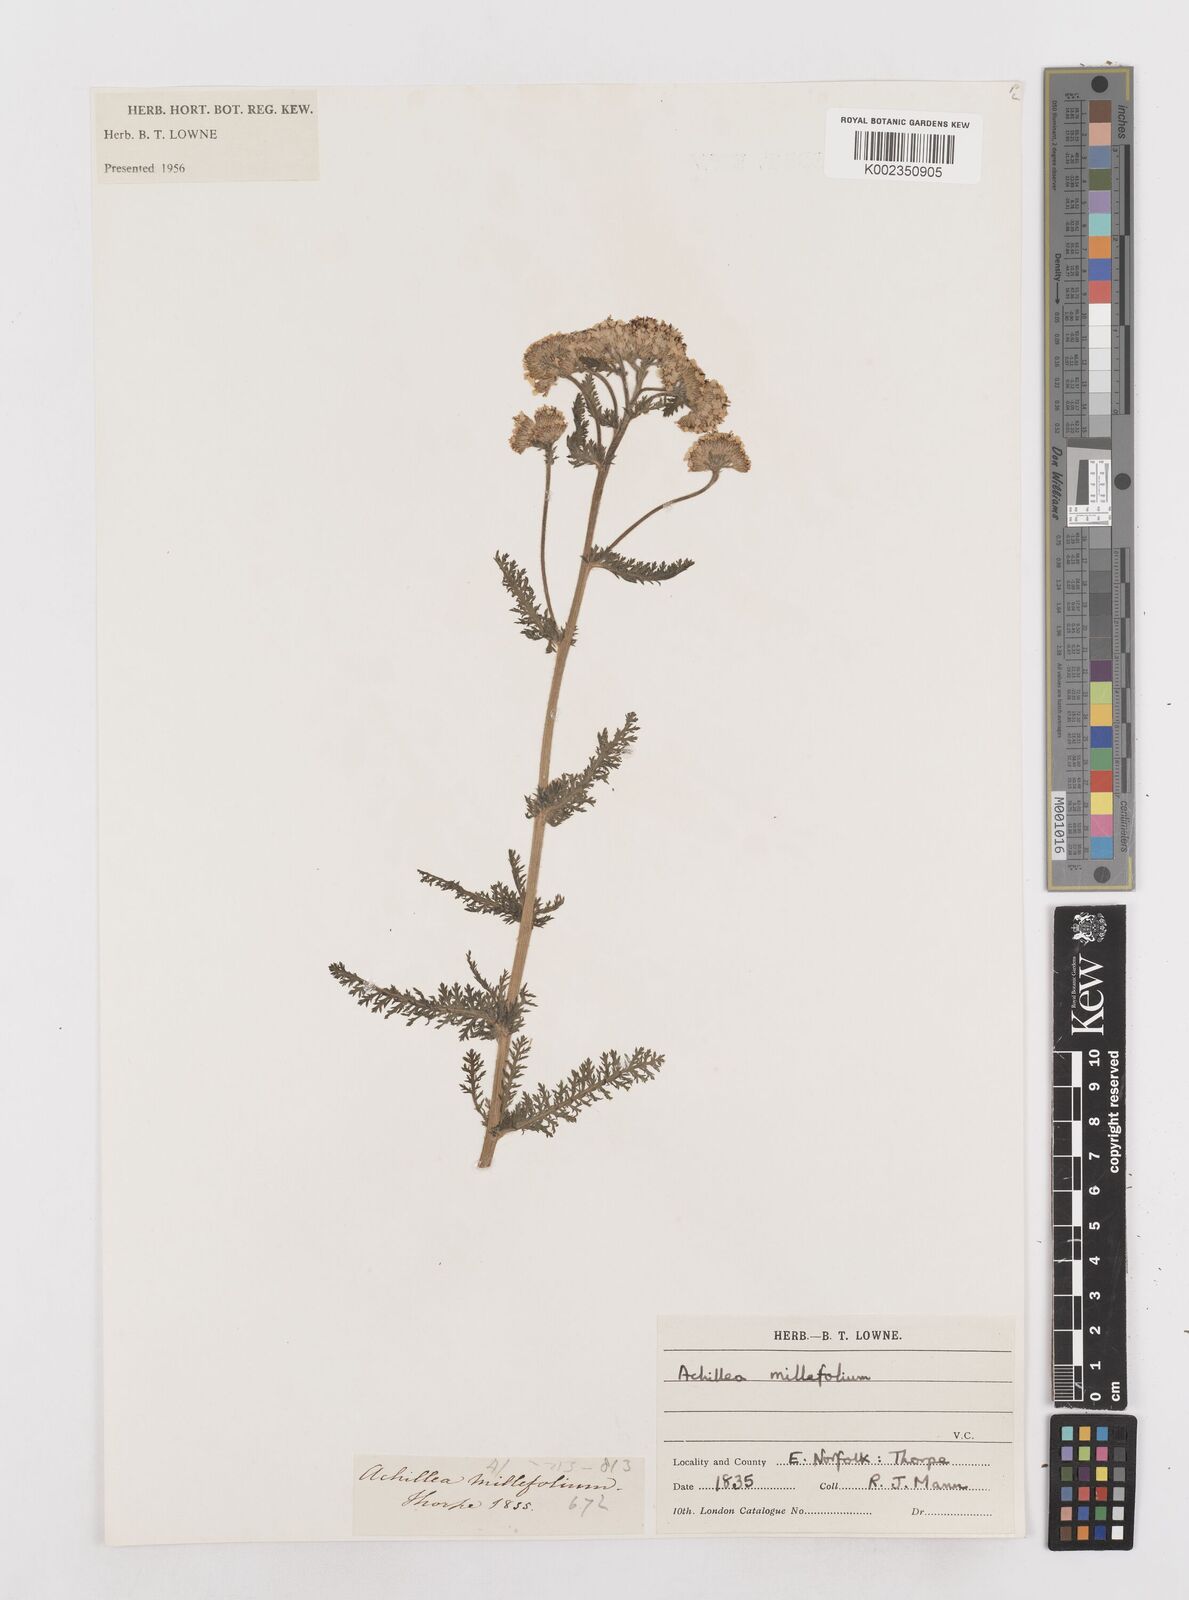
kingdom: Plantae
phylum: Tracheophyta
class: Magnoliopsida
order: Asterales
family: Asteraceae
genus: Achillea
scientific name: Achillea millefolium
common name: Yarrow
